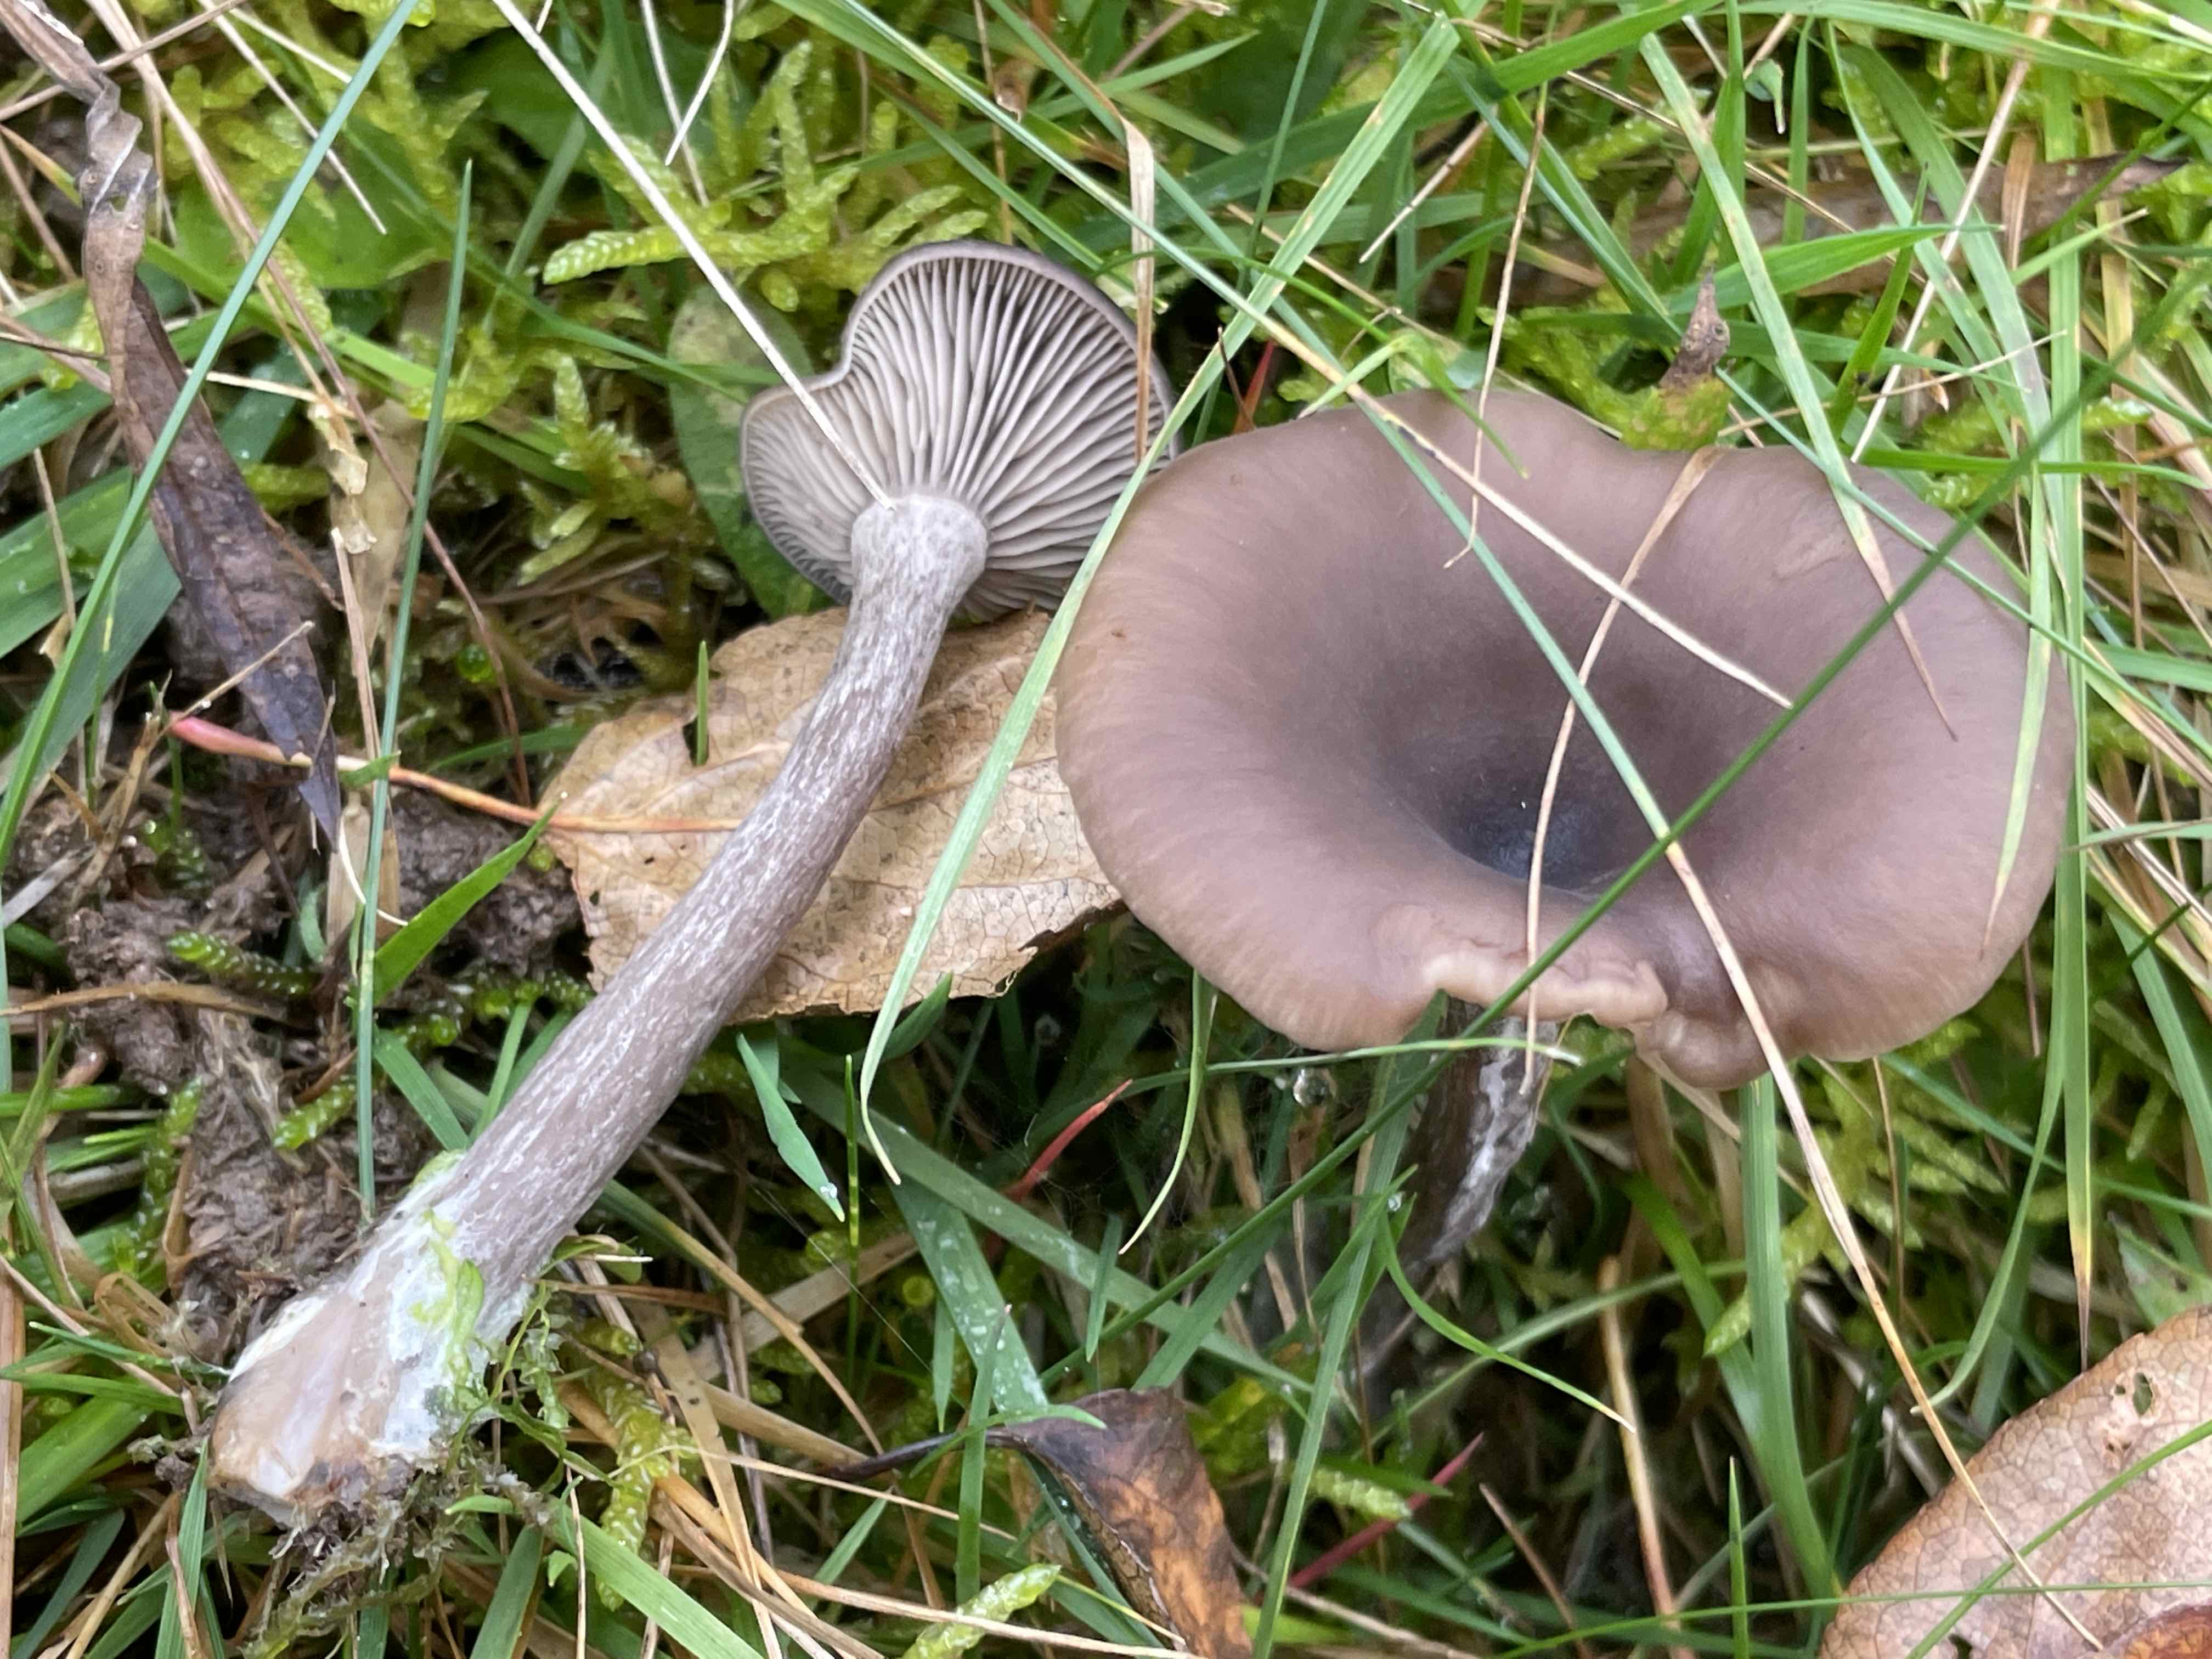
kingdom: Fungi
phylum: Basidiomycota
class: Agaricomycetes
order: Agaricales
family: Pseudoclitocybaceae
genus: Pseudoclitocybe
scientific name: Pseudoclitocybe expallens
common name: lille bægertragthat
